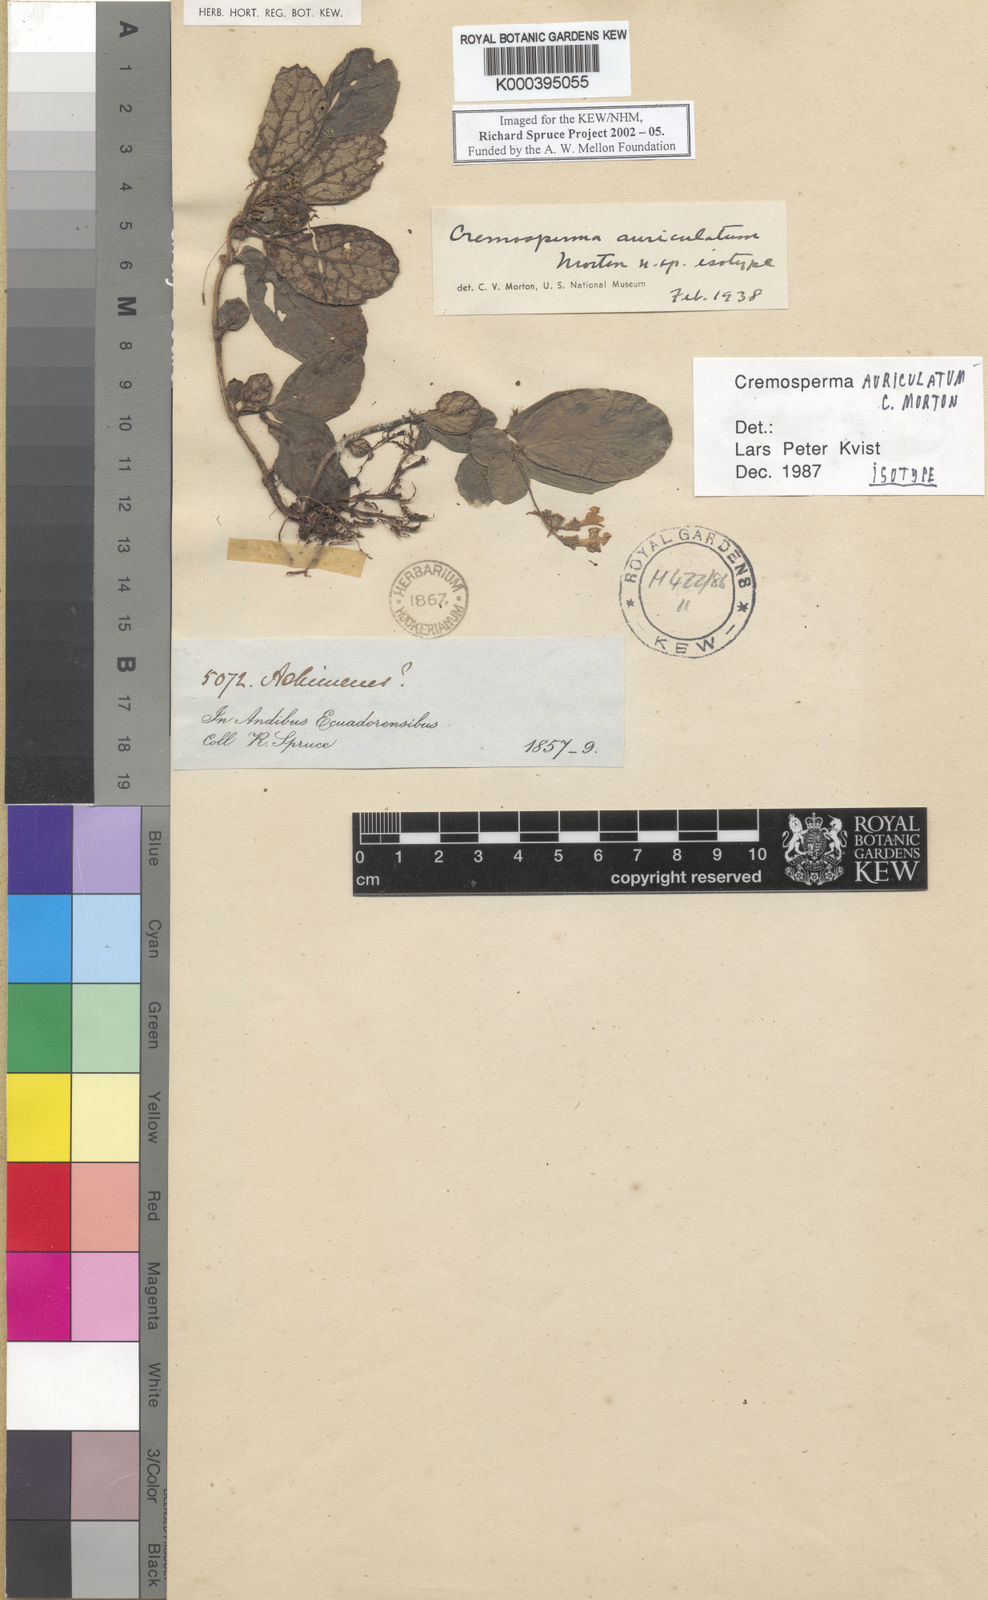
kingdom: Plantae
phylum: Tracheophyta
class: Magnoliopsida
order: Lamiales
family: Gesneriaceae
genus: Cremospermopsis
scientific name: Cremospermopsis cestroides
